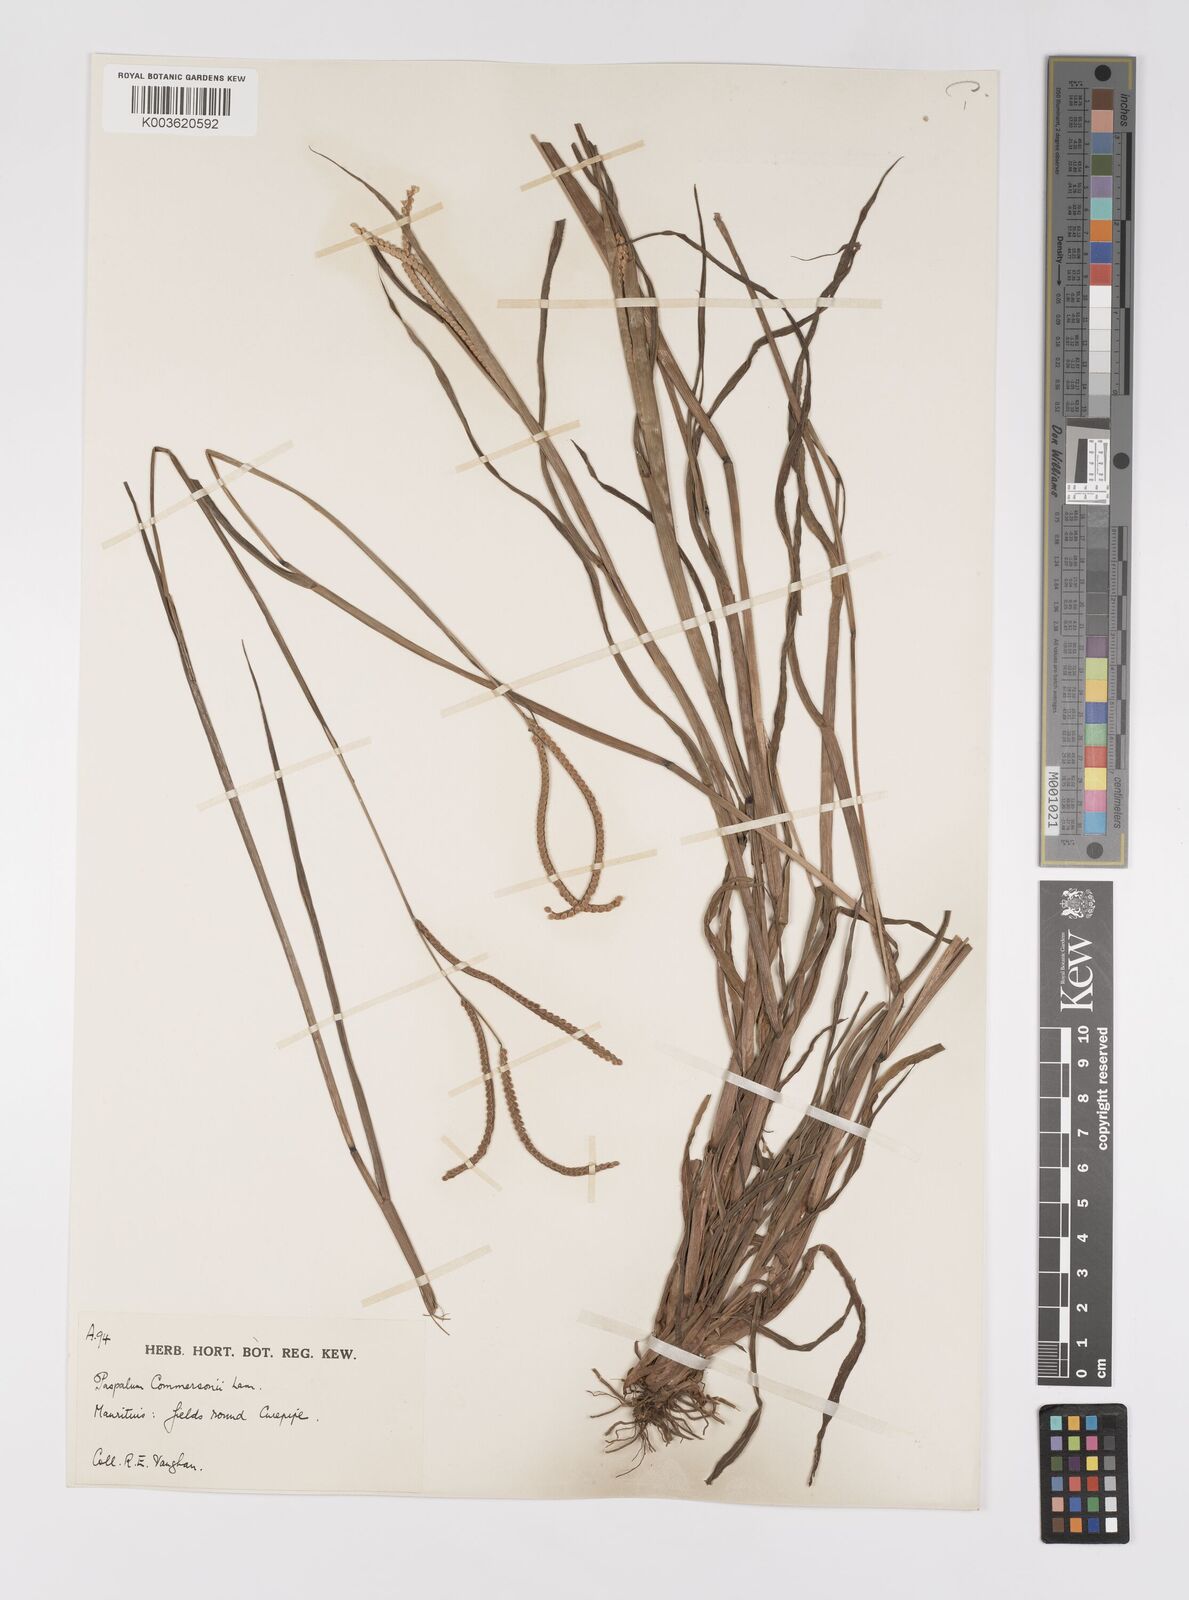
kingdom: Plantae
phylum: Tracheophyta
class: Liliopsida
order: Poales
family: Poaceae
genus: Paspalum
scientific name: Paspalum scrobiculatum
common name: Kodo millet
